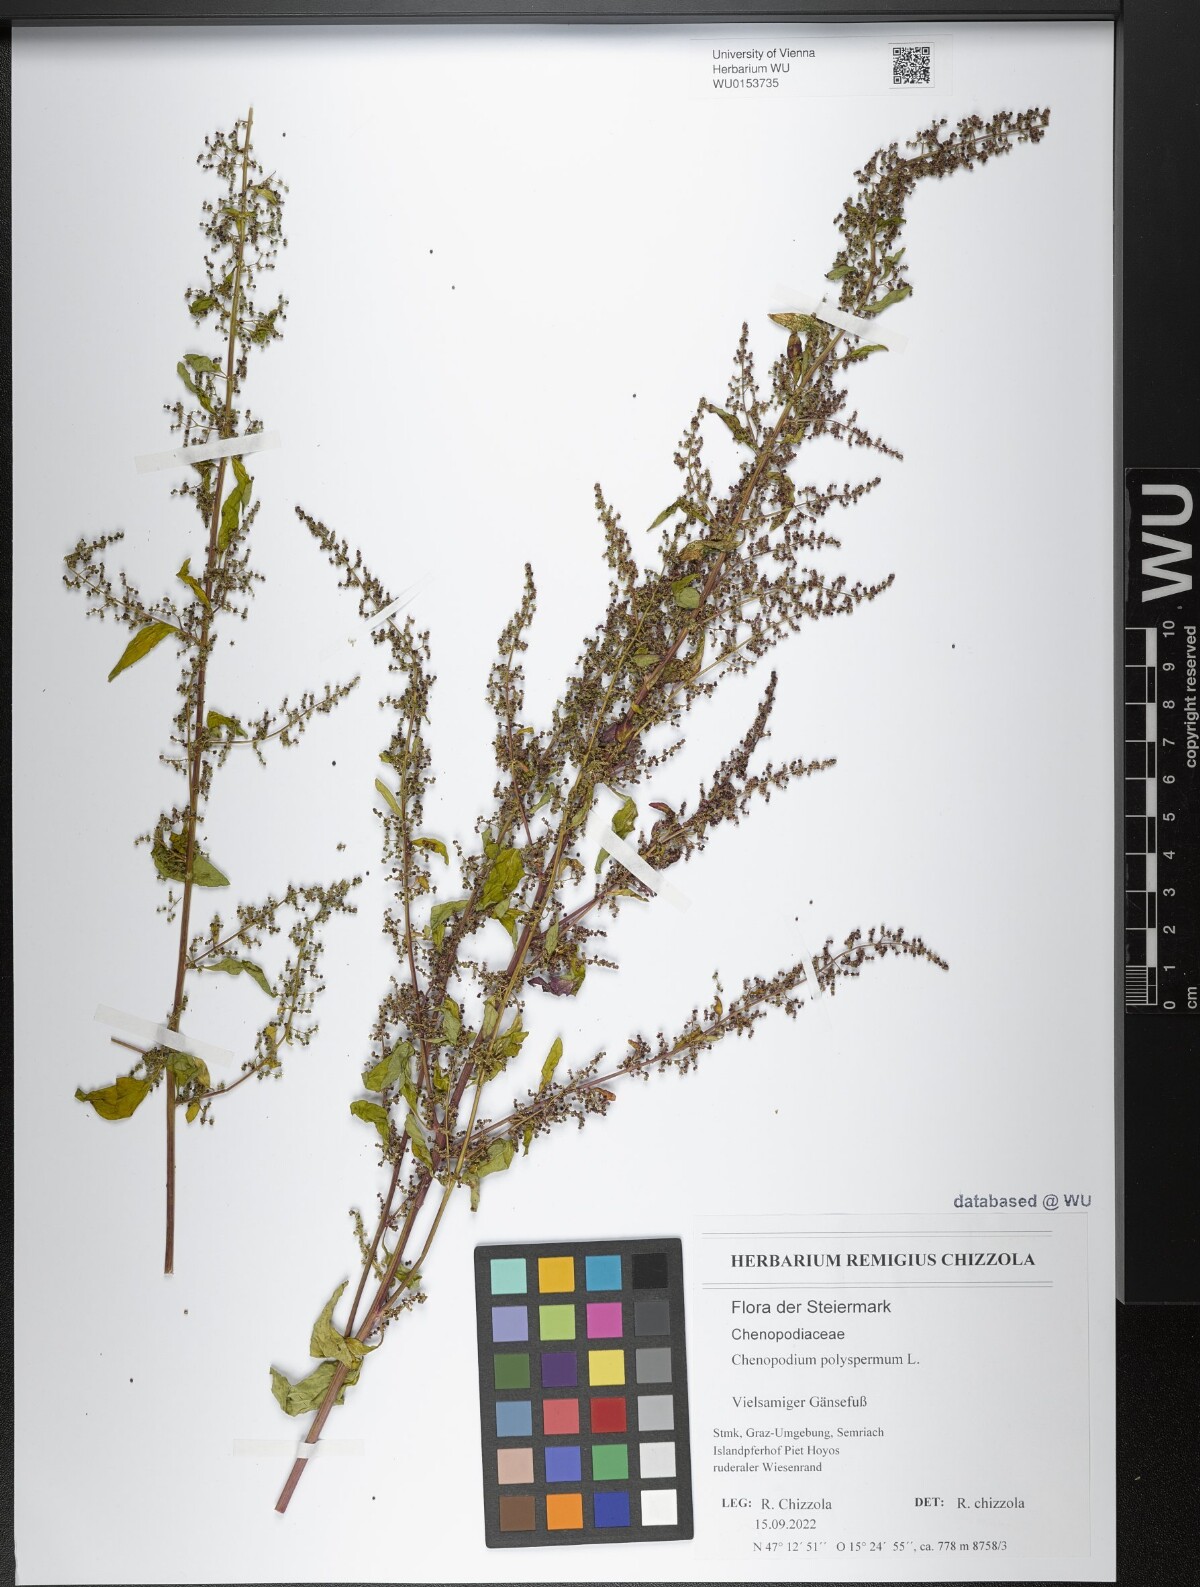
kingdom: Plantae
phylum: Tracheophyta
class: Magnoliopsida
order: Caryophyllales
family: Amaranthaceae
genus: Lipandra
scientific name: Lipandra polysperma
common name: Many-seed goosefoot
